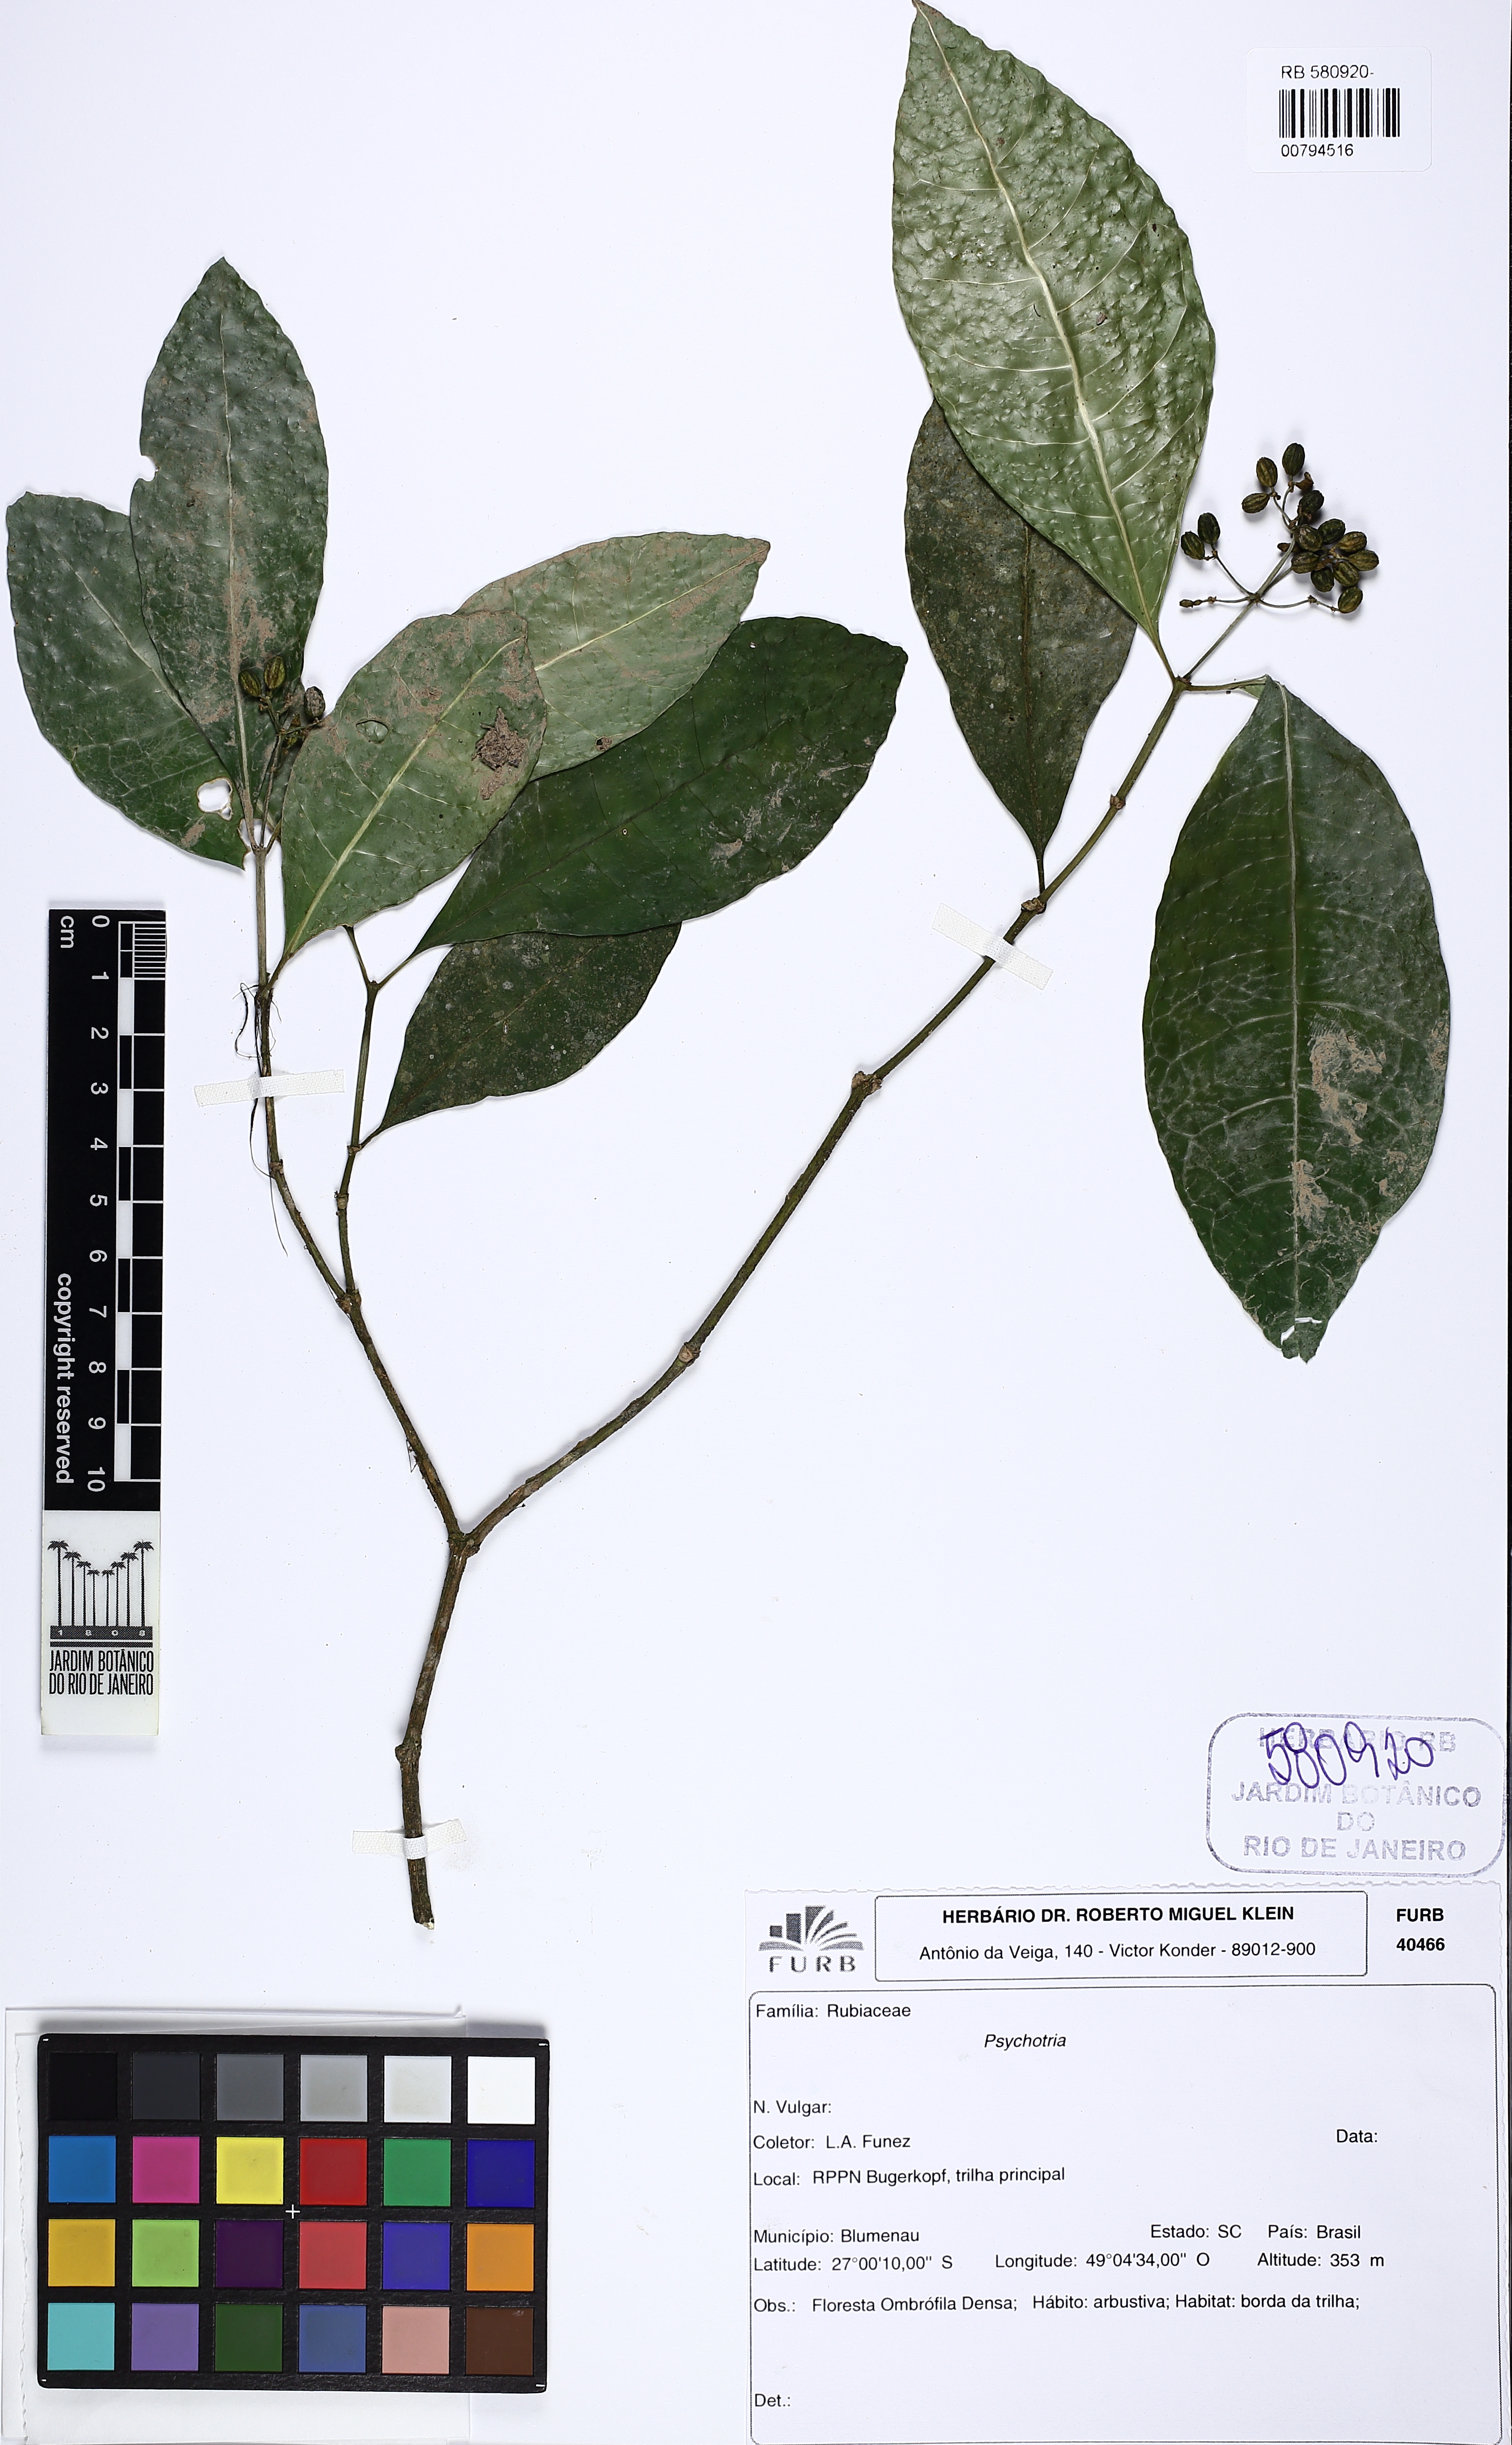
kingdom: Plantae
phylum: Tracheophyta
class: Magnoliopsida
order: Gentianales
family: Rubiaceae
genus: Eumachia
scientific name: Eumachia chaenotricha
